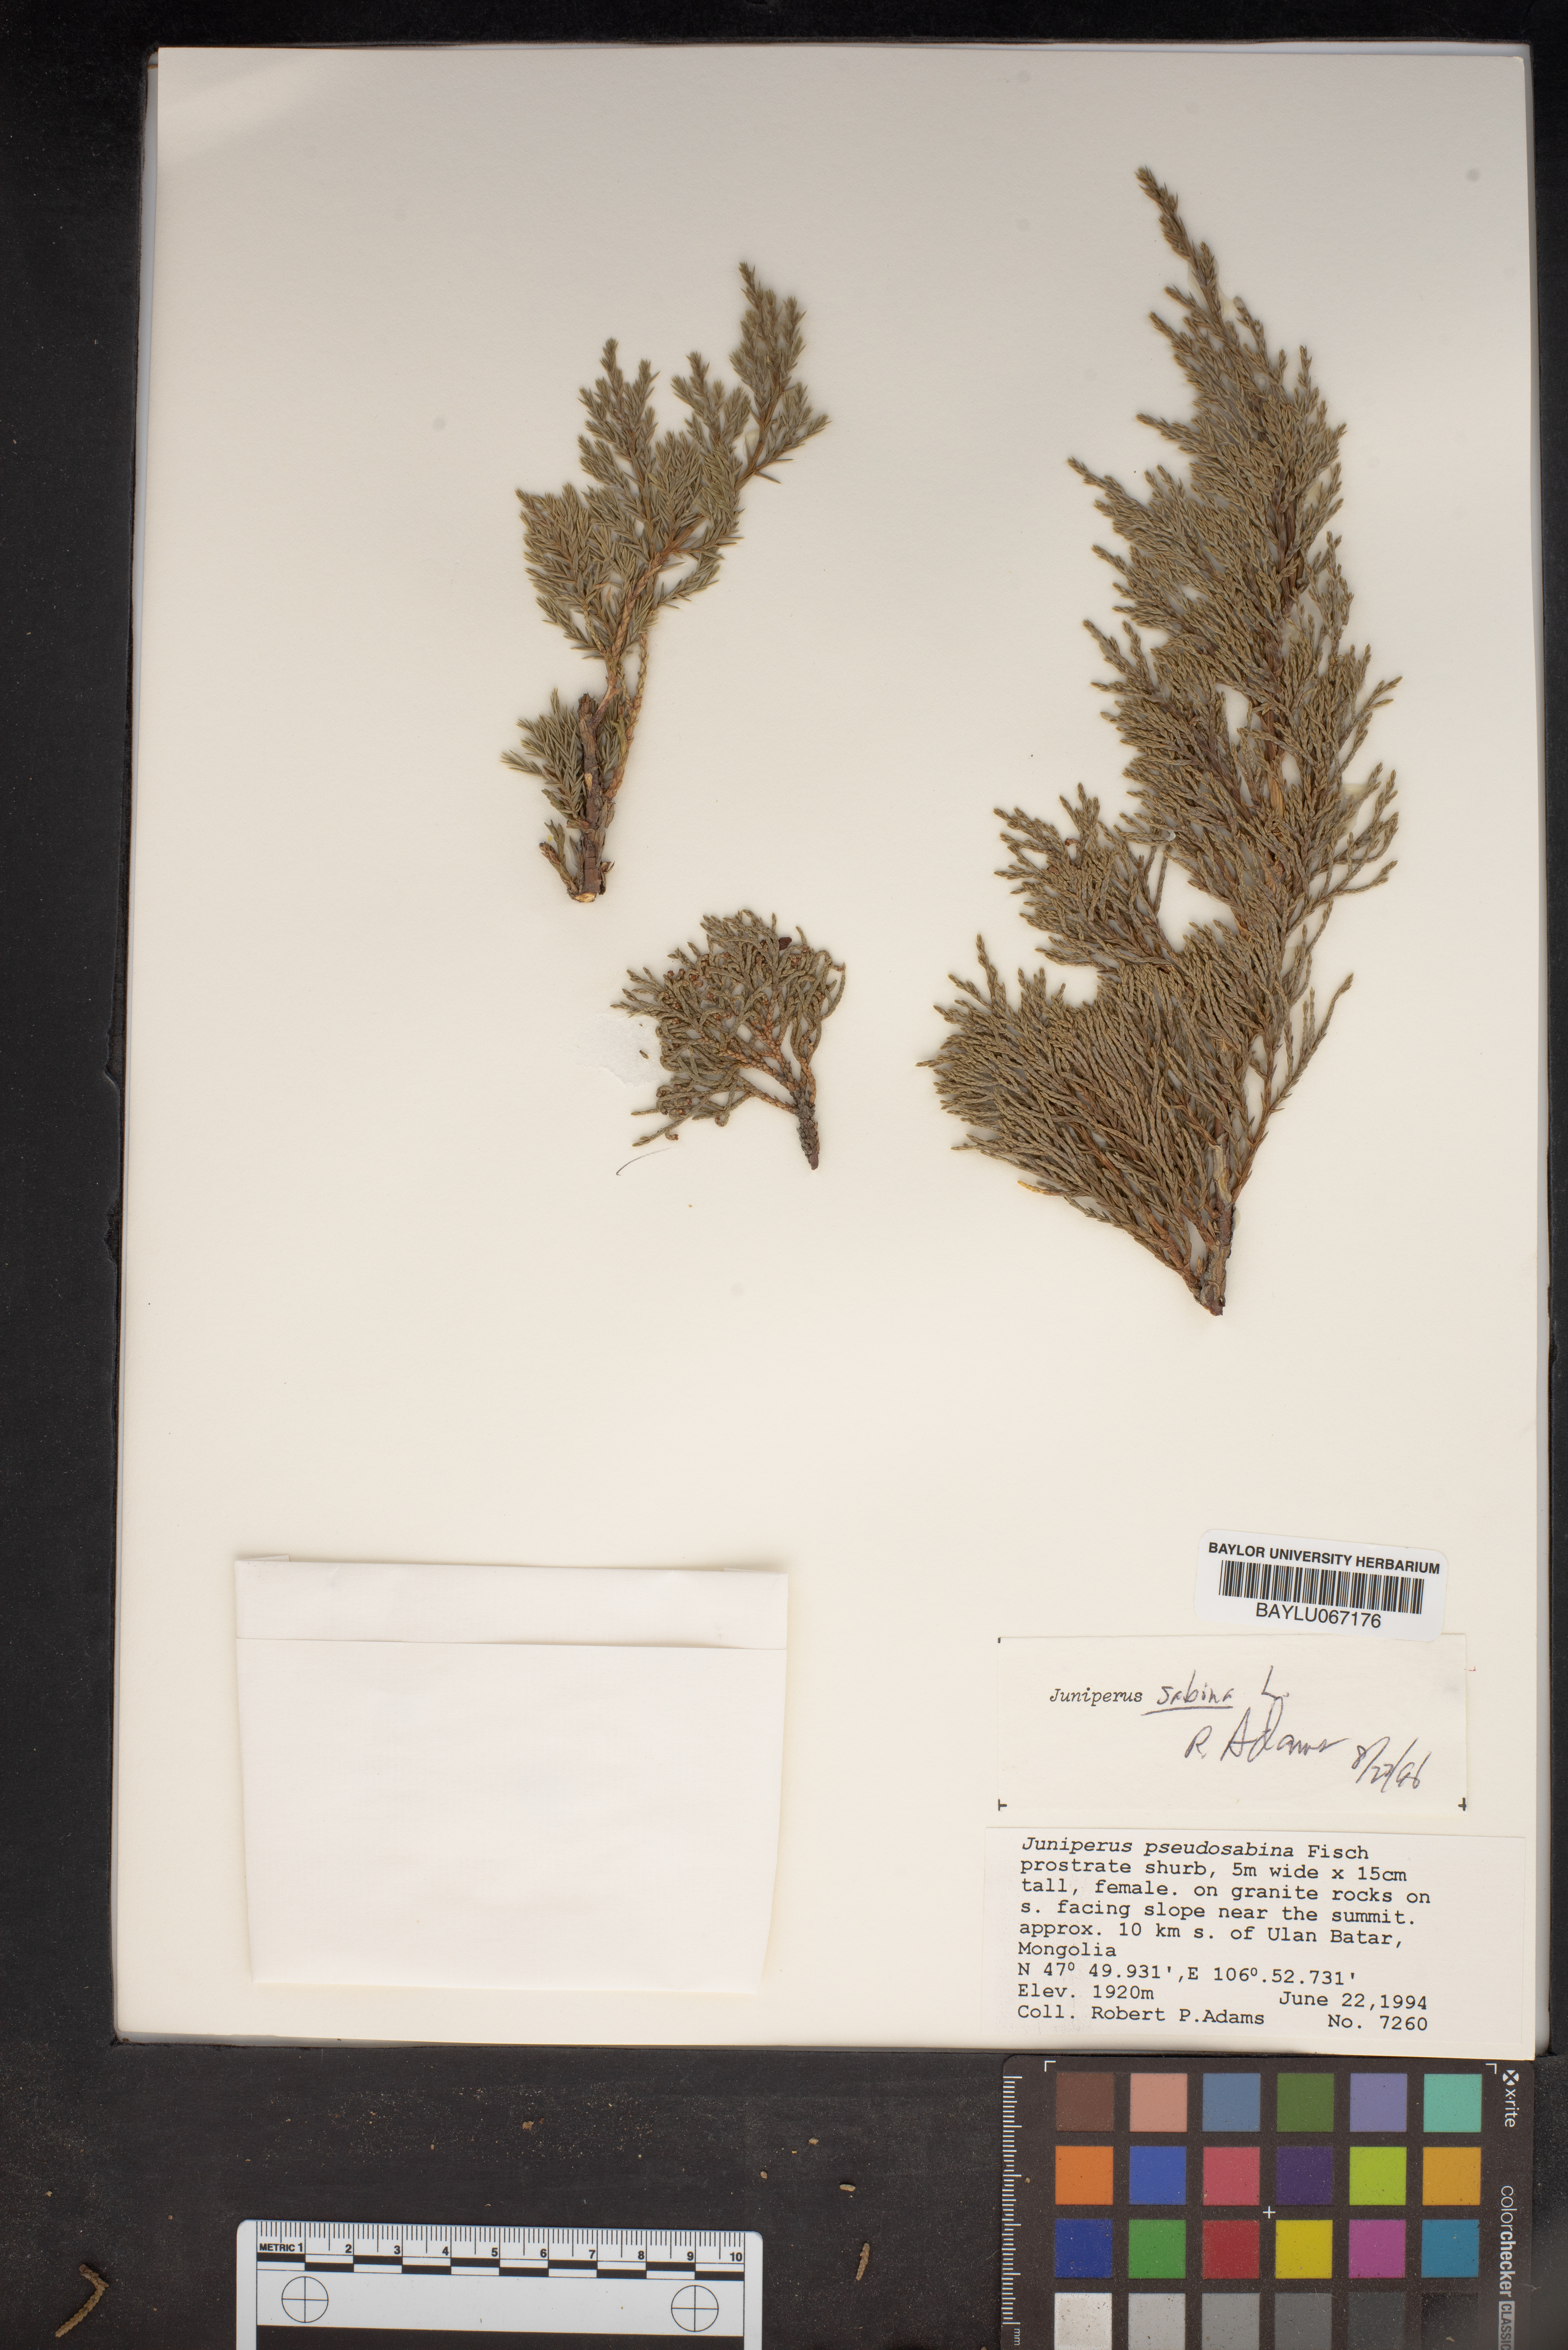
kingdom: Plantae
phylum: Tracheophyta
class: Pinopsida
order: Pinales
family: Cupressaceae
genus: Juniperus
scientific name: Juniperus sabina
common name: Savin
